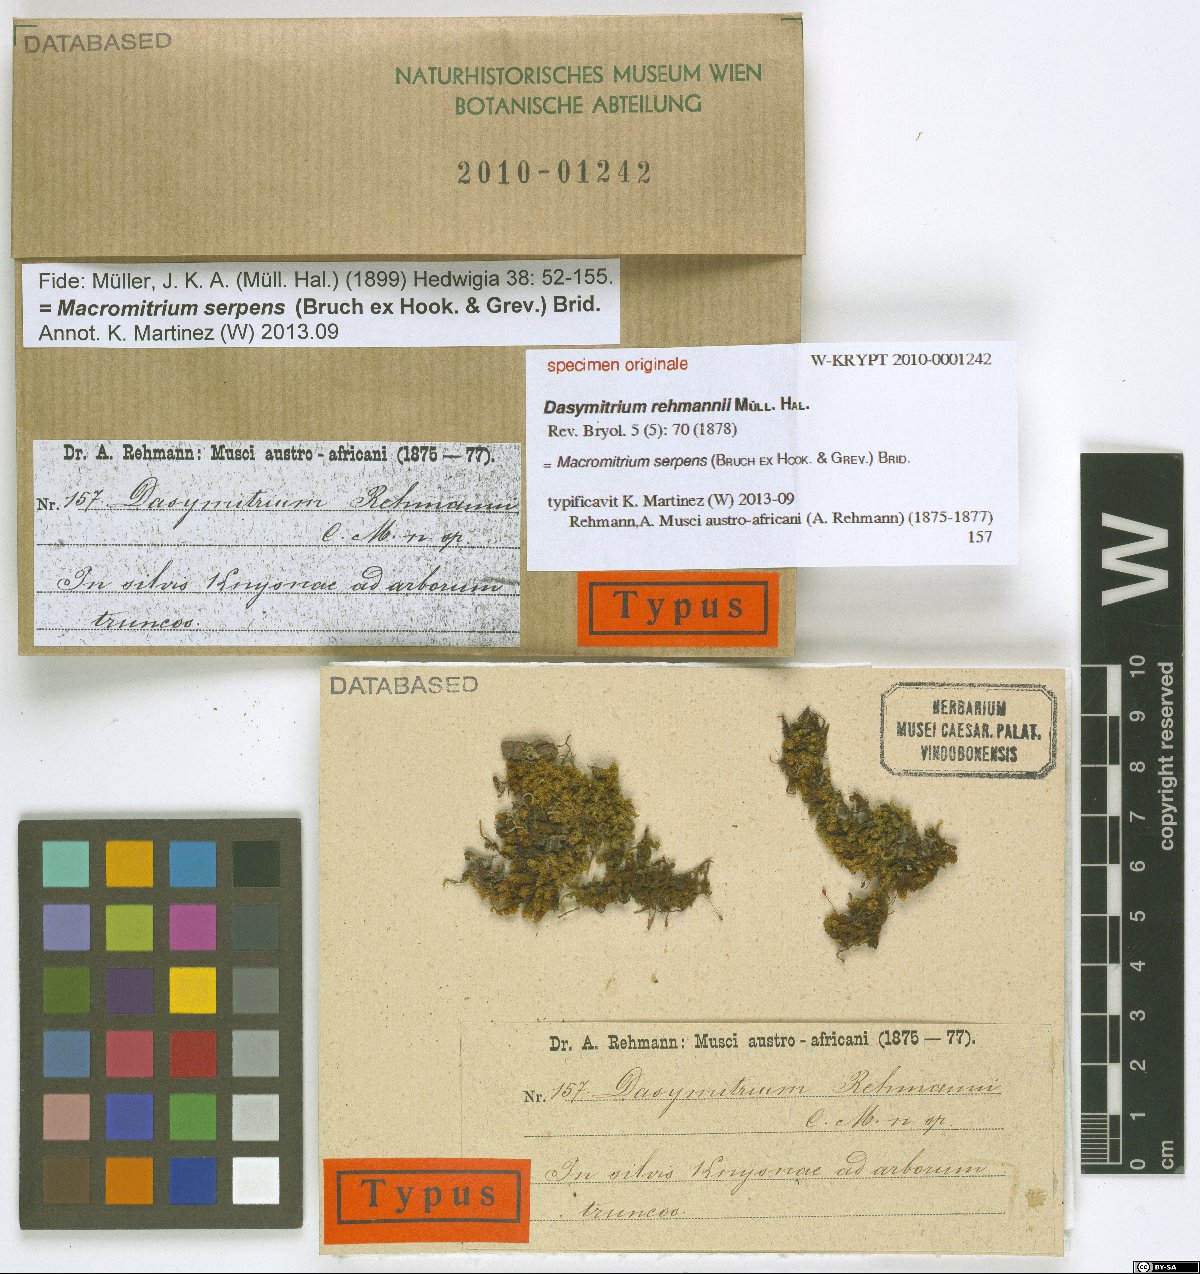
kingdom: Plantae
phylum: Bryophyta
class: Bryopsida
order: Orthotrichales
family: Orthotrichaceae
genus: Macromitrium
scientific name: Macromitrium
